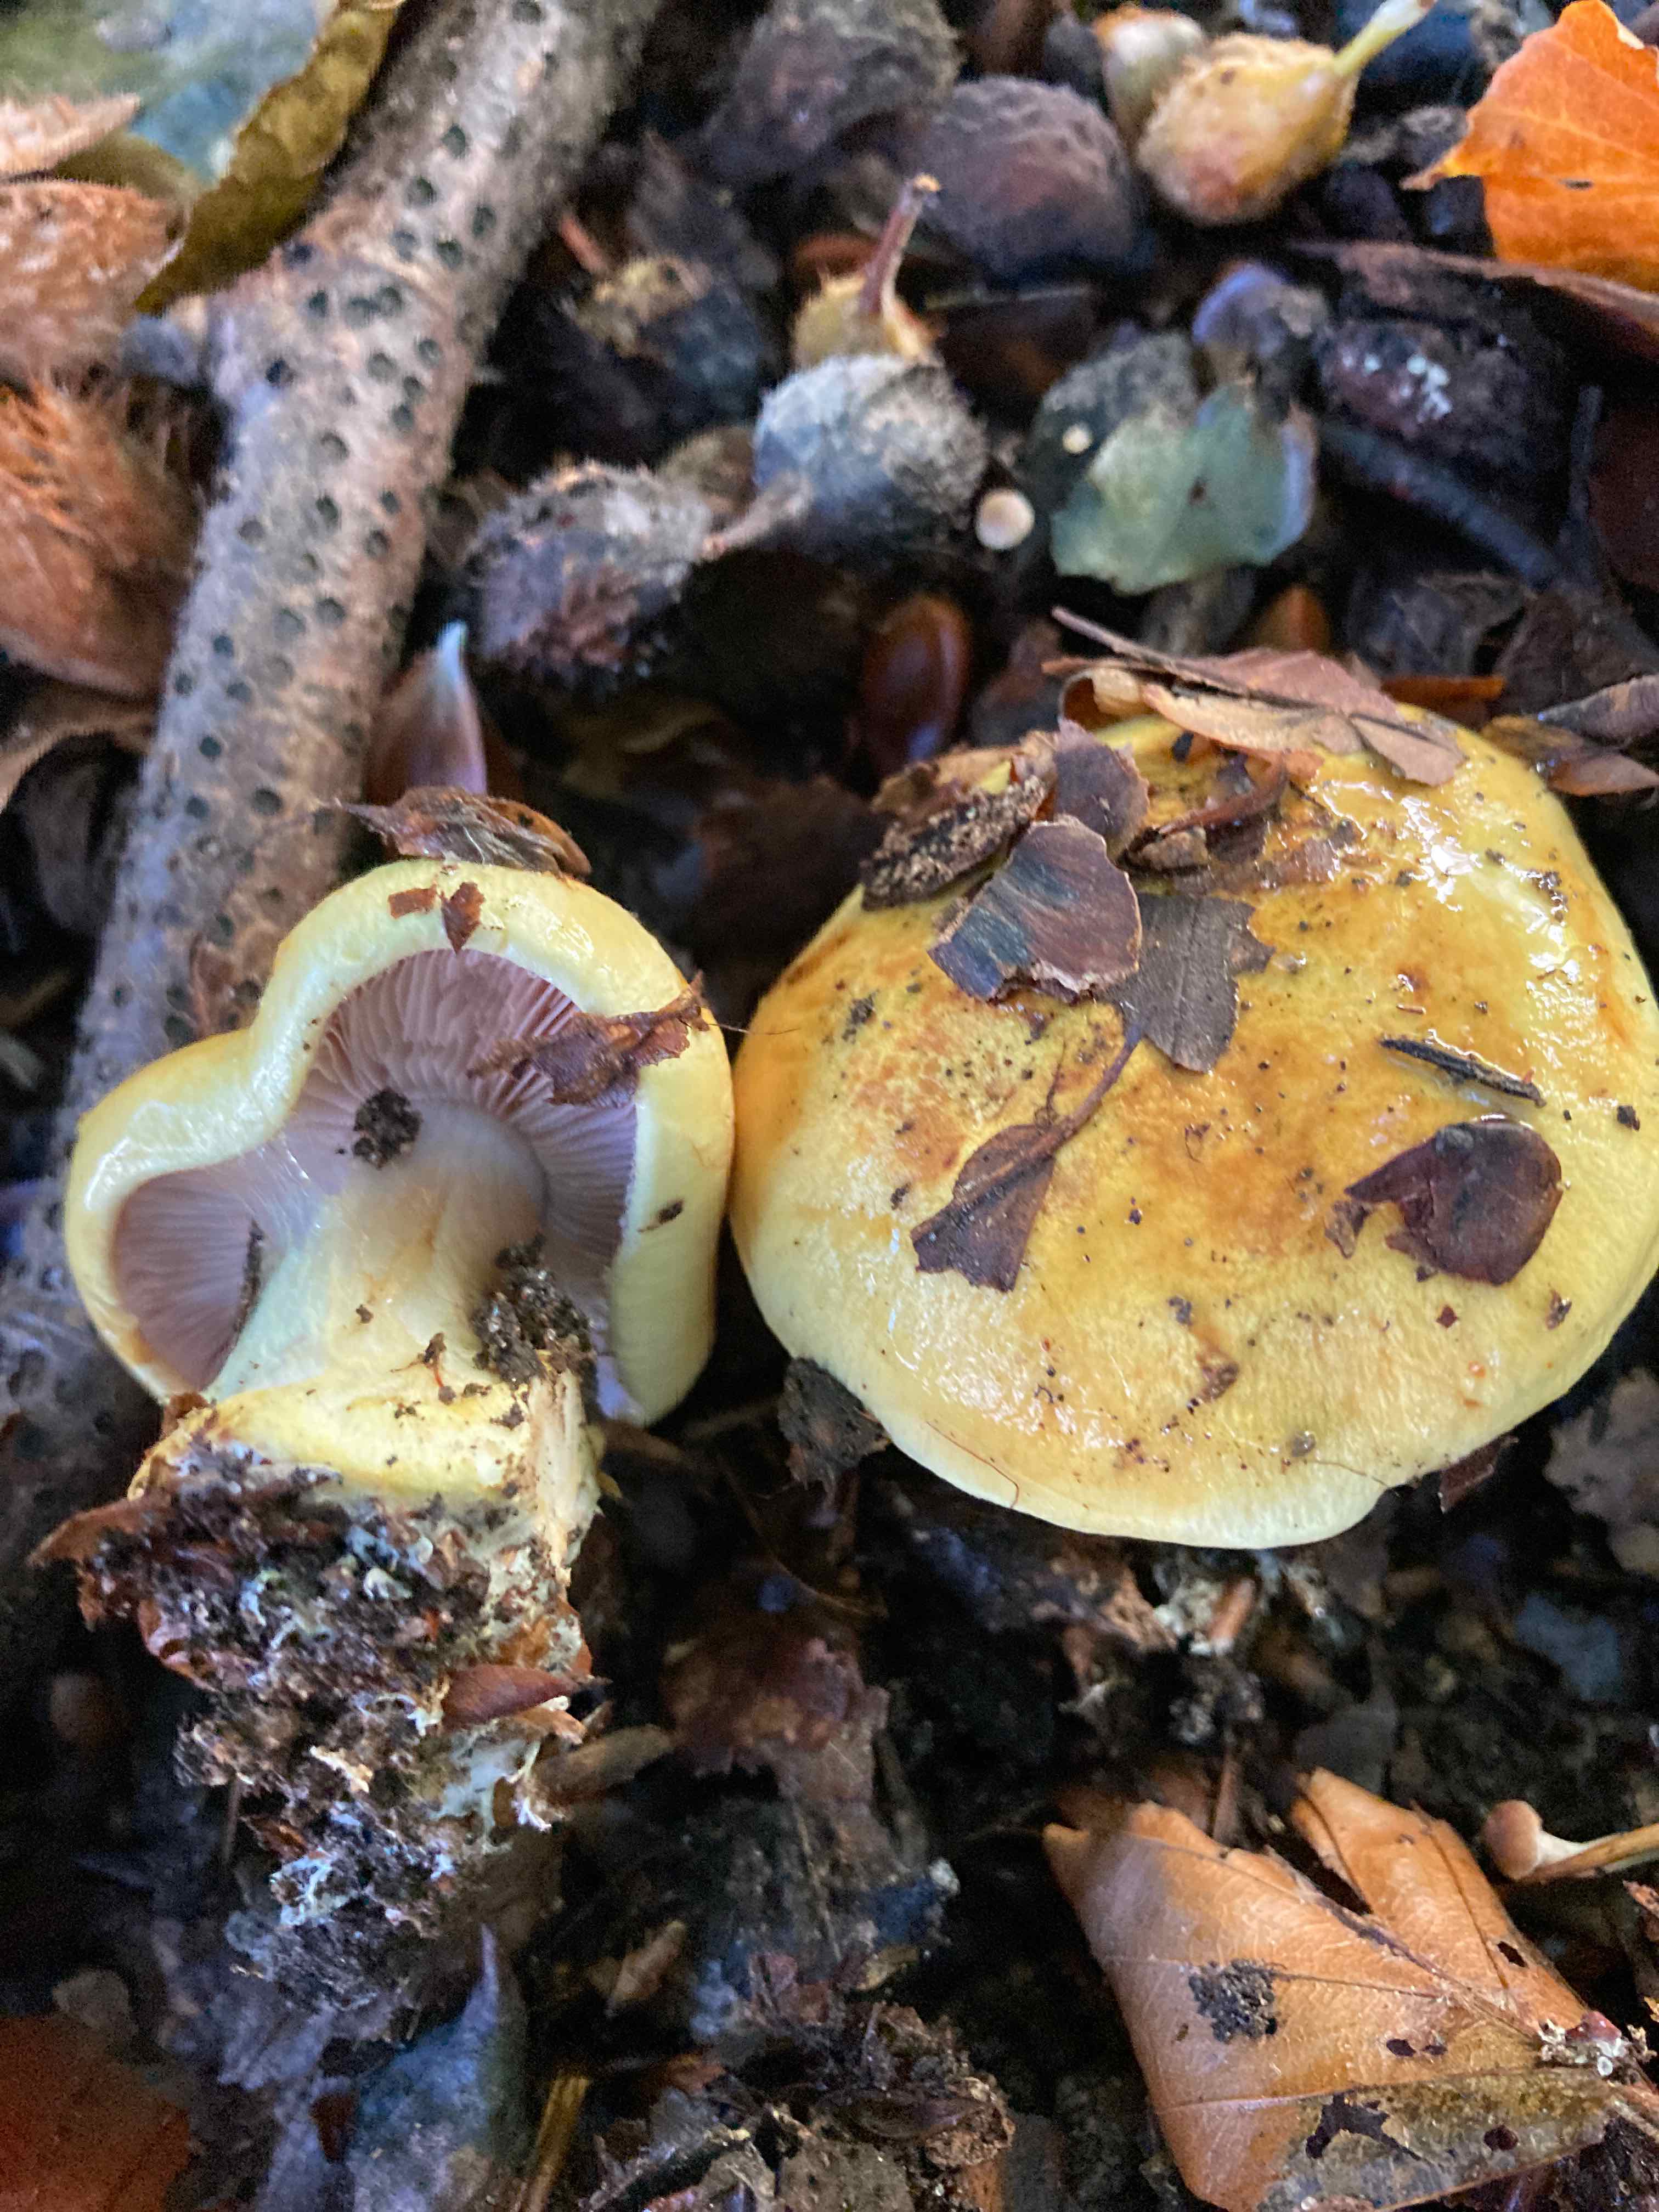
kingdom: Fungi
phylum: Basidiomycota
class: Agaricomycetes
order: Agaricales
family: Cortinariaceae
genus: Calonarius
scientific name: Calonarius callochrous
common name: lillabladet slørhat
